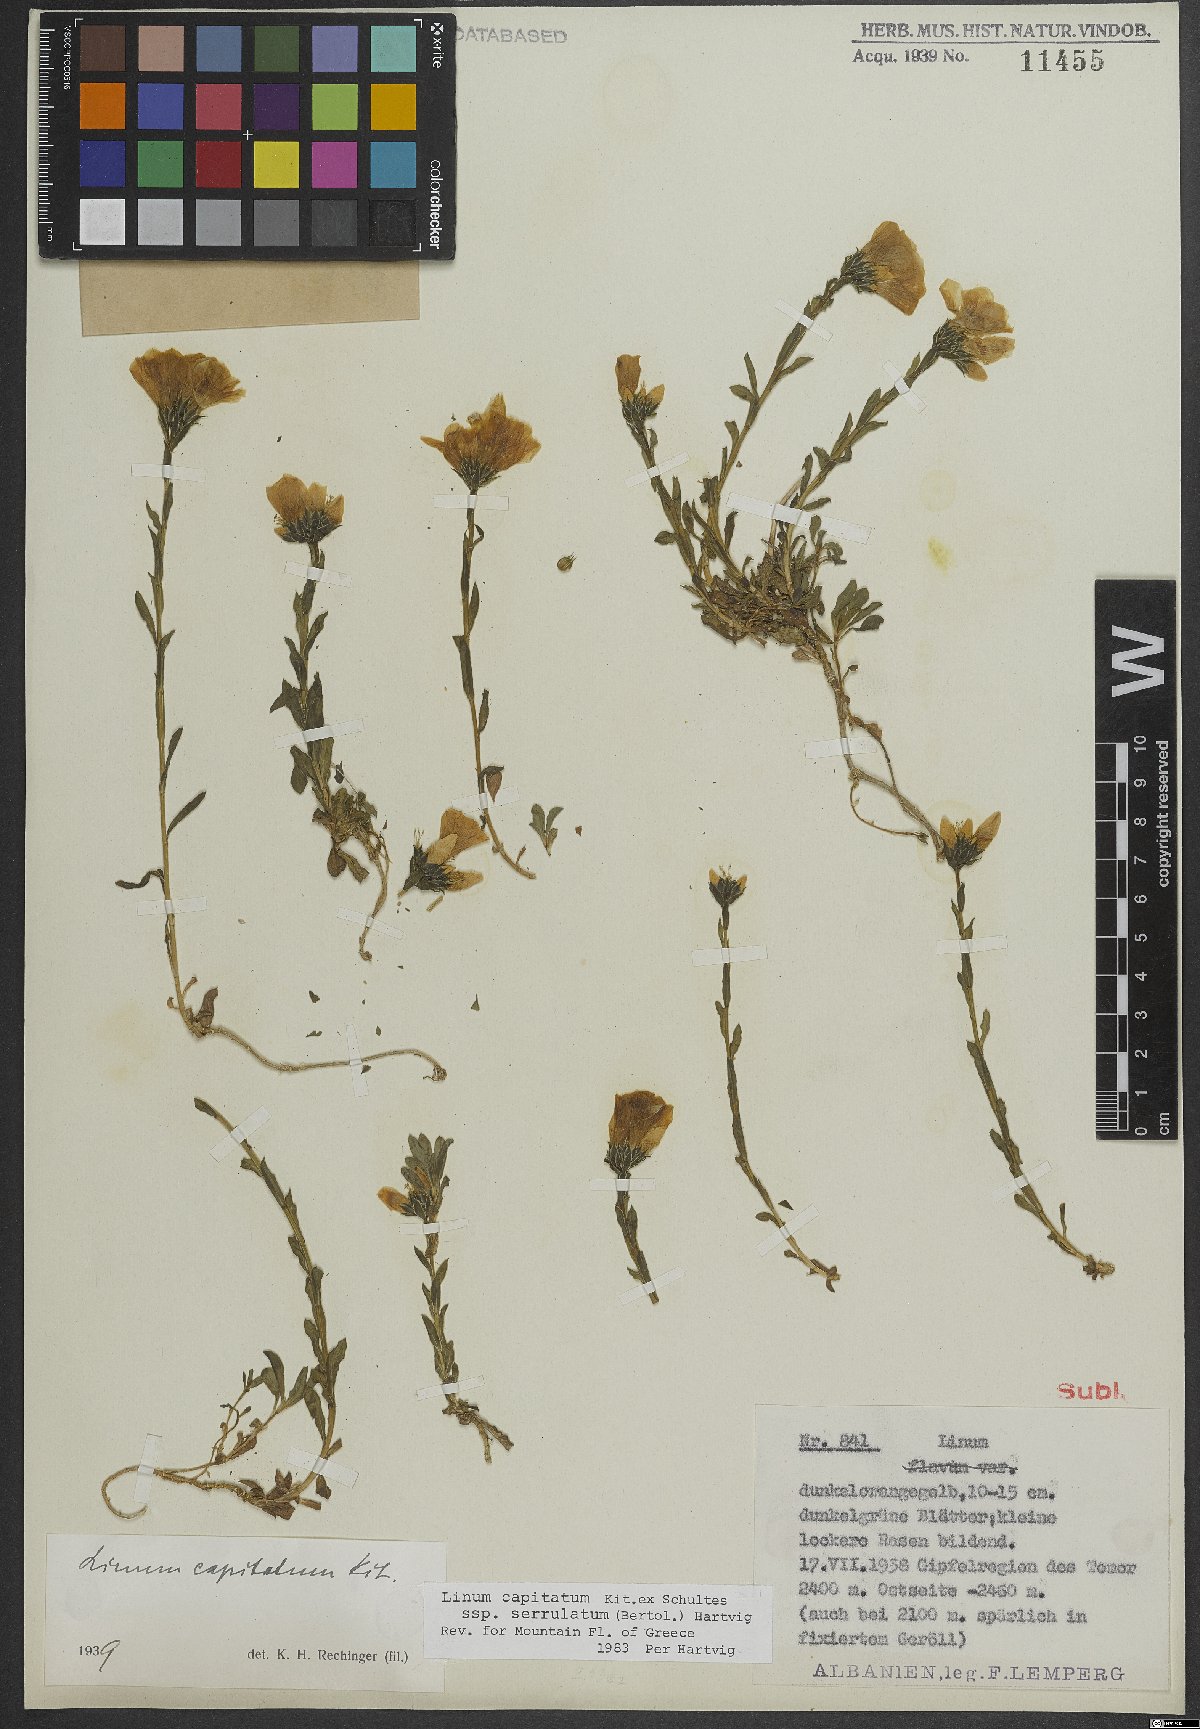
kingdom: Plantae
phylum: Tracheophyta
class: Magnoliopsida
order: Malpighiales
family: Linaceae
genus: Linum
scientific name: Linum capitatum
